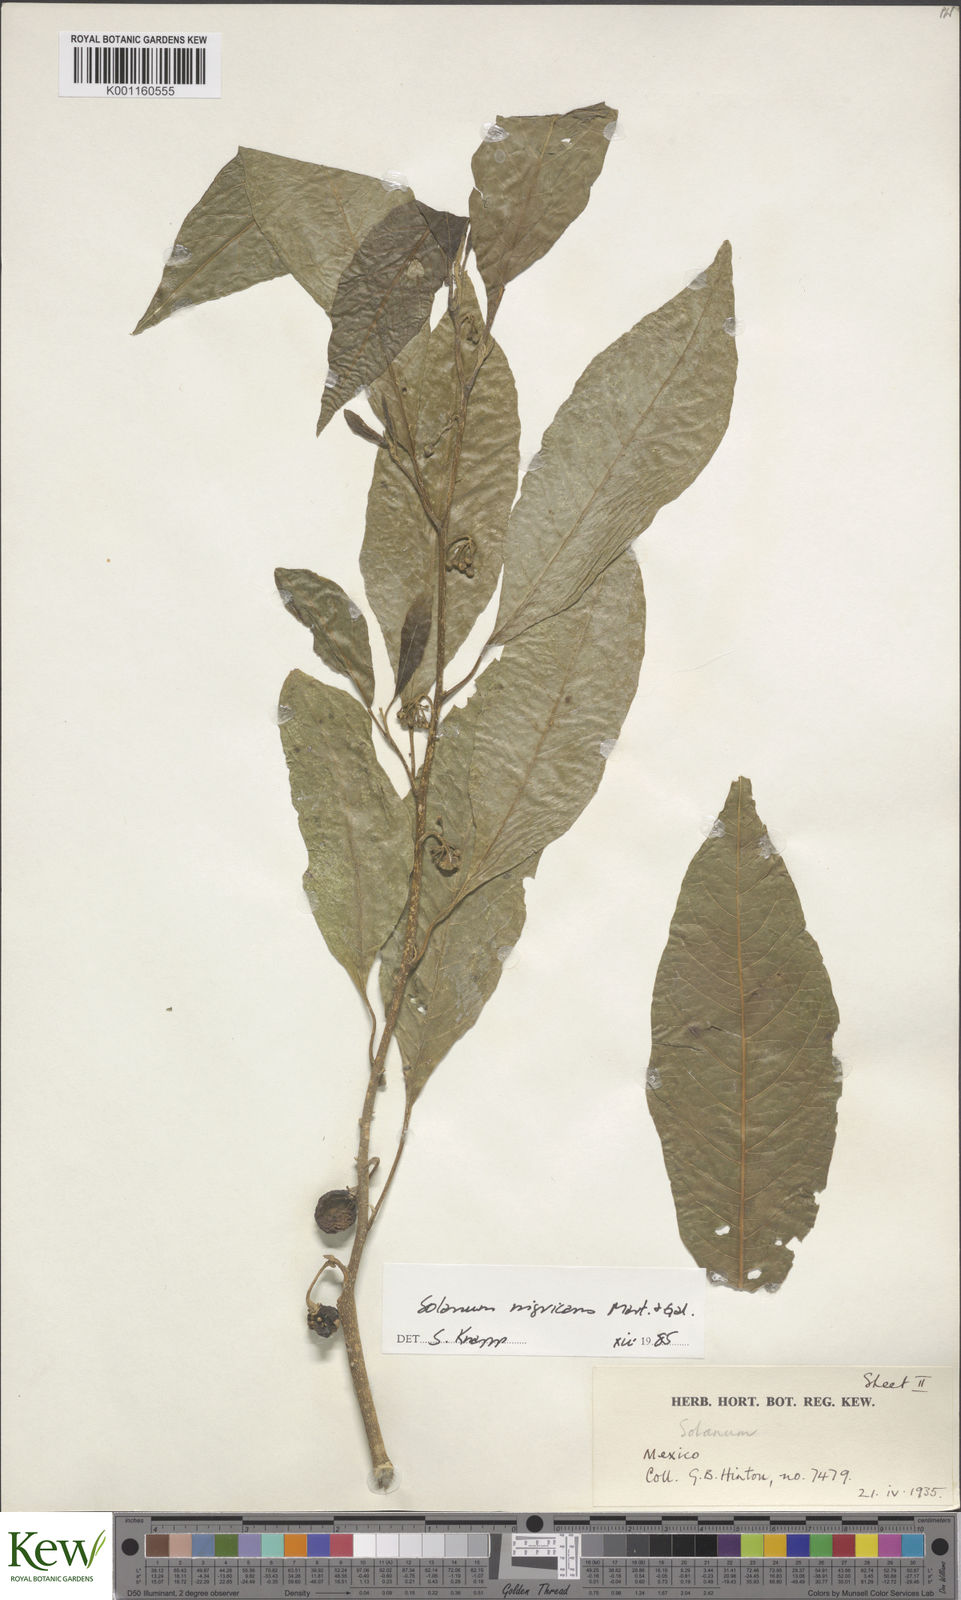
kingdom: Plantae
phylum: Tracheophyta
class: Magnoliopsida
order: Solanales
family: Solanaceae
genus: Solanum
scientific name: Solanum nigricans
